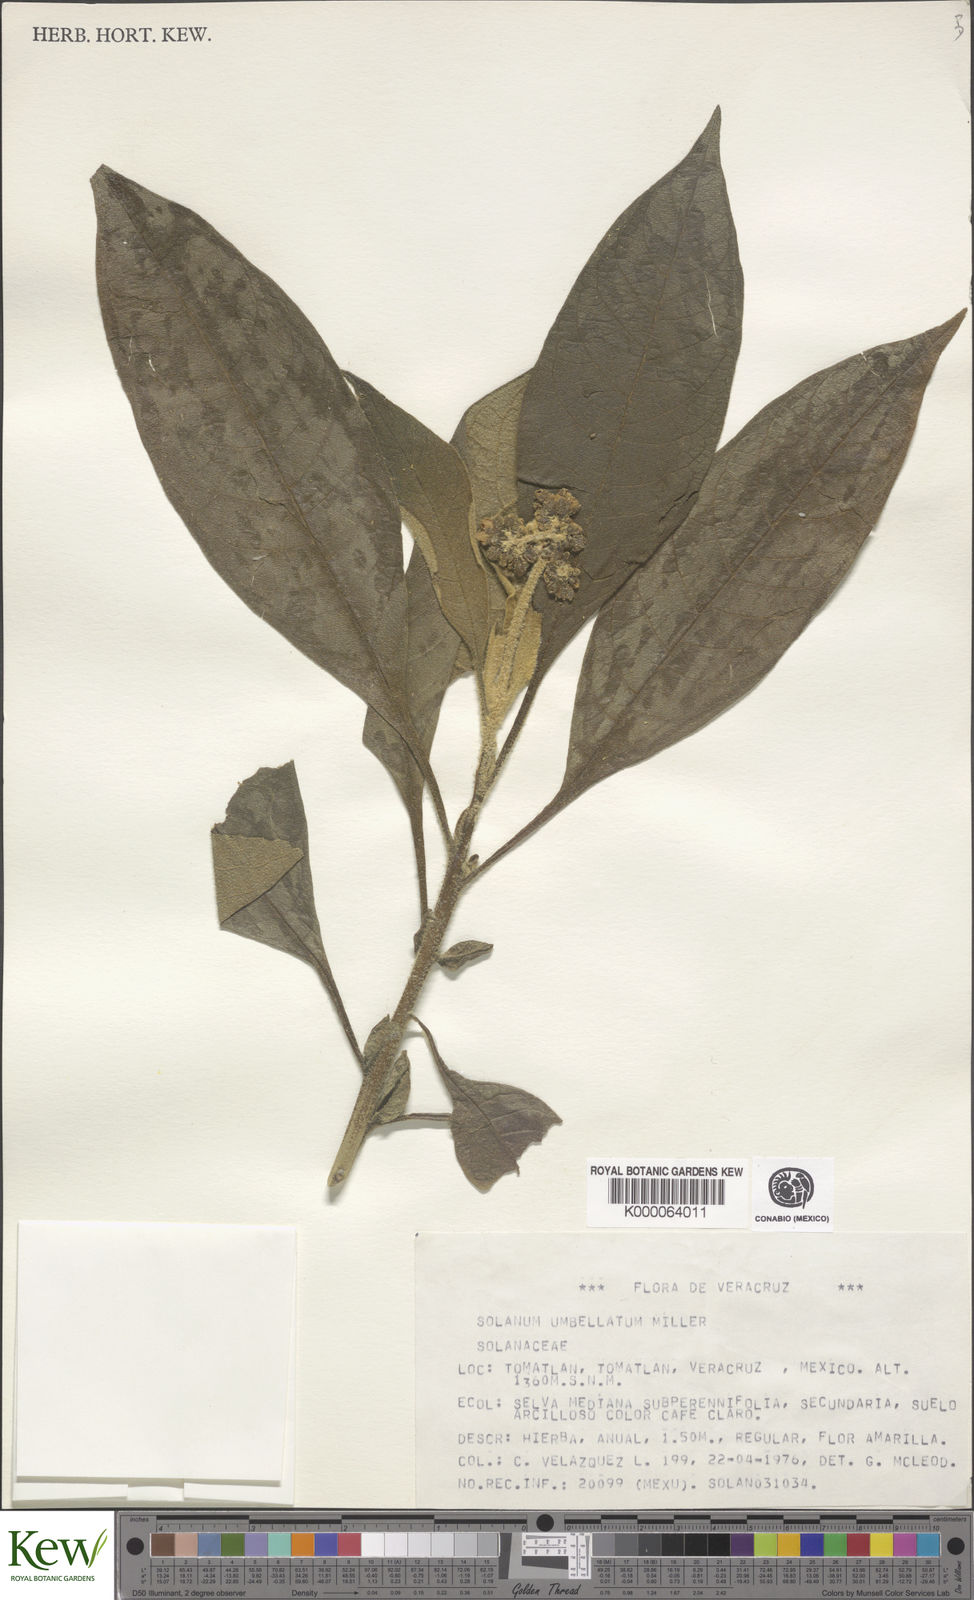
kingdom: Plantae
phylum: Tracheophyta
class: Magnoliopsida
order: Solanales
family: Solanaceae
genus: Solanum
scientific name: Solanum umbellatum
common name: Nightshade
